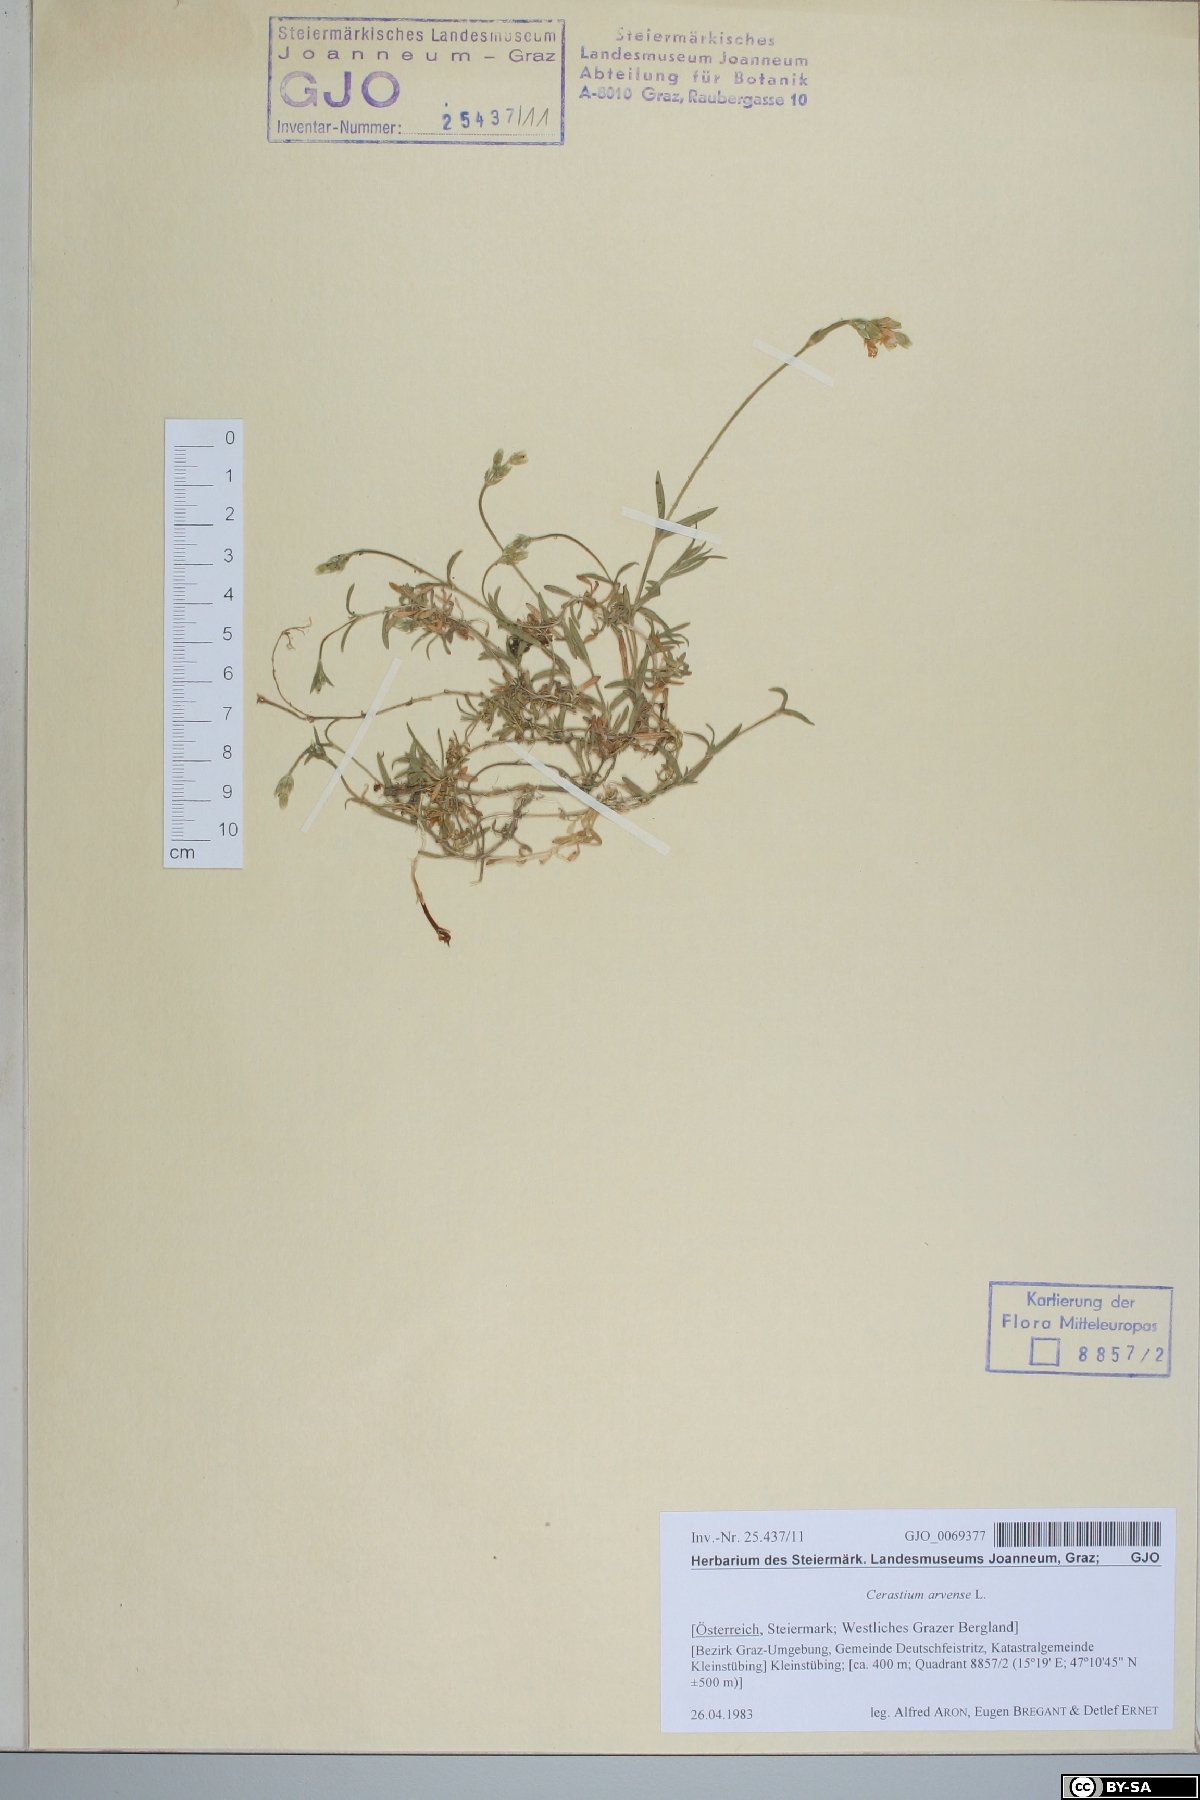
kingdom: Plantae
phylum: Tracheophyta
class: Magnoliopsida
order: Caryophyllales
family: Caryophyllaceae
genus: Cerastium
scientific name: Cerastium arvense
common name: Field mouse-ear
